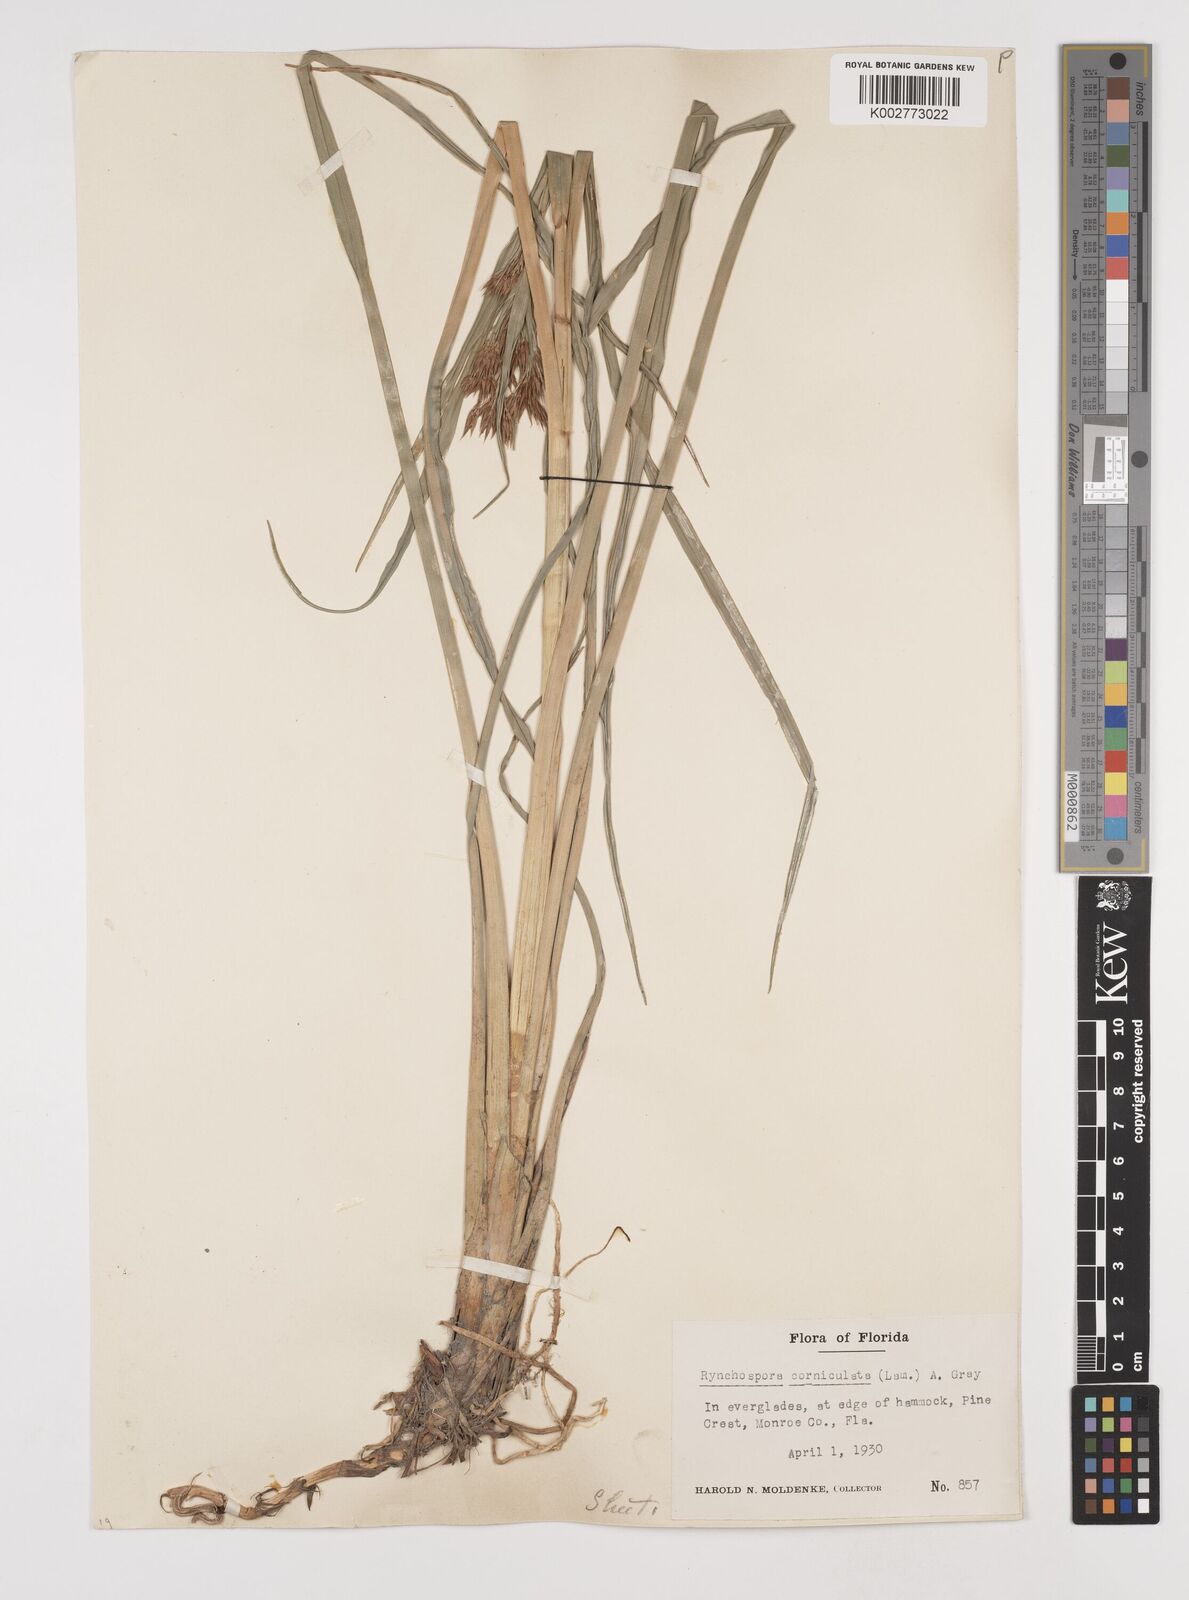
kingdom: Plantae
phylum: Tracheophyta
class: Liliopsida
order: Poales
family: Cyperaceae
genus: Rhynchospora
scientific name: Rhynchospora corniculata
